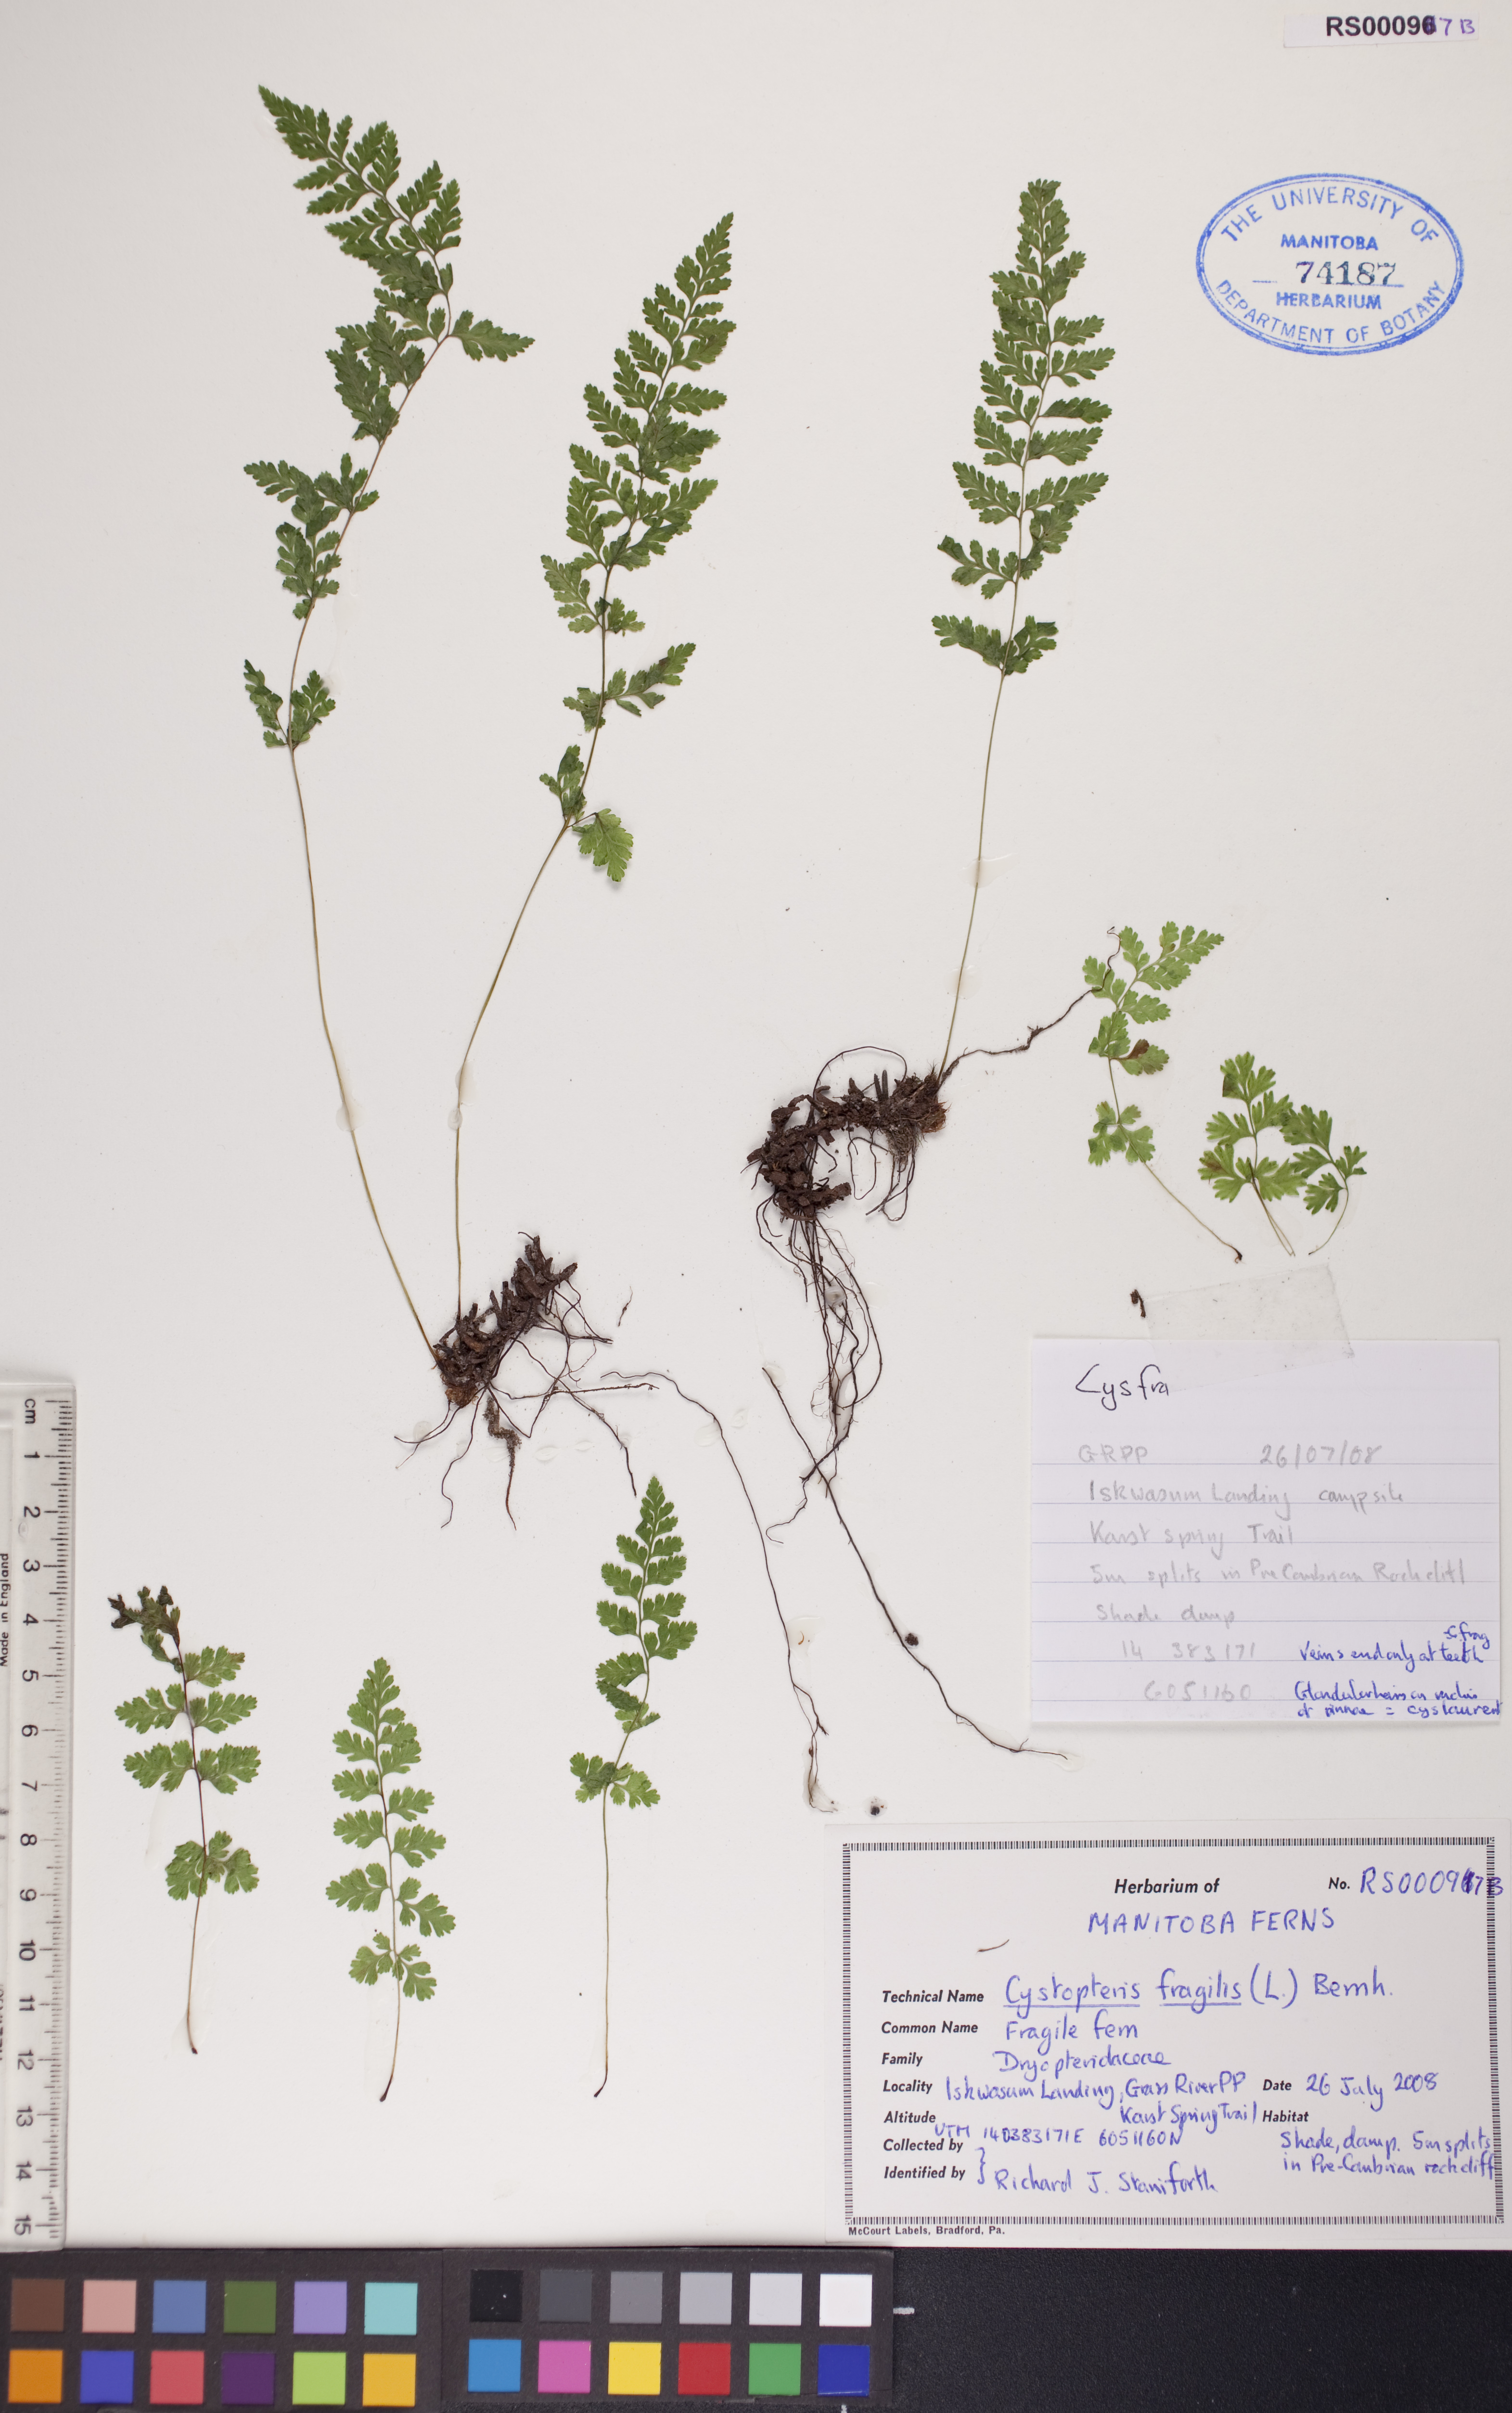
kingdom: Plantae
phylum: Tracheophyta
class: Polypodiopsida
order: Polypodiales
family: Cystopteridaceae
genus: Cystopteris
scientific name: Cystopteris fragilis
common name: Brittle bladder fern
